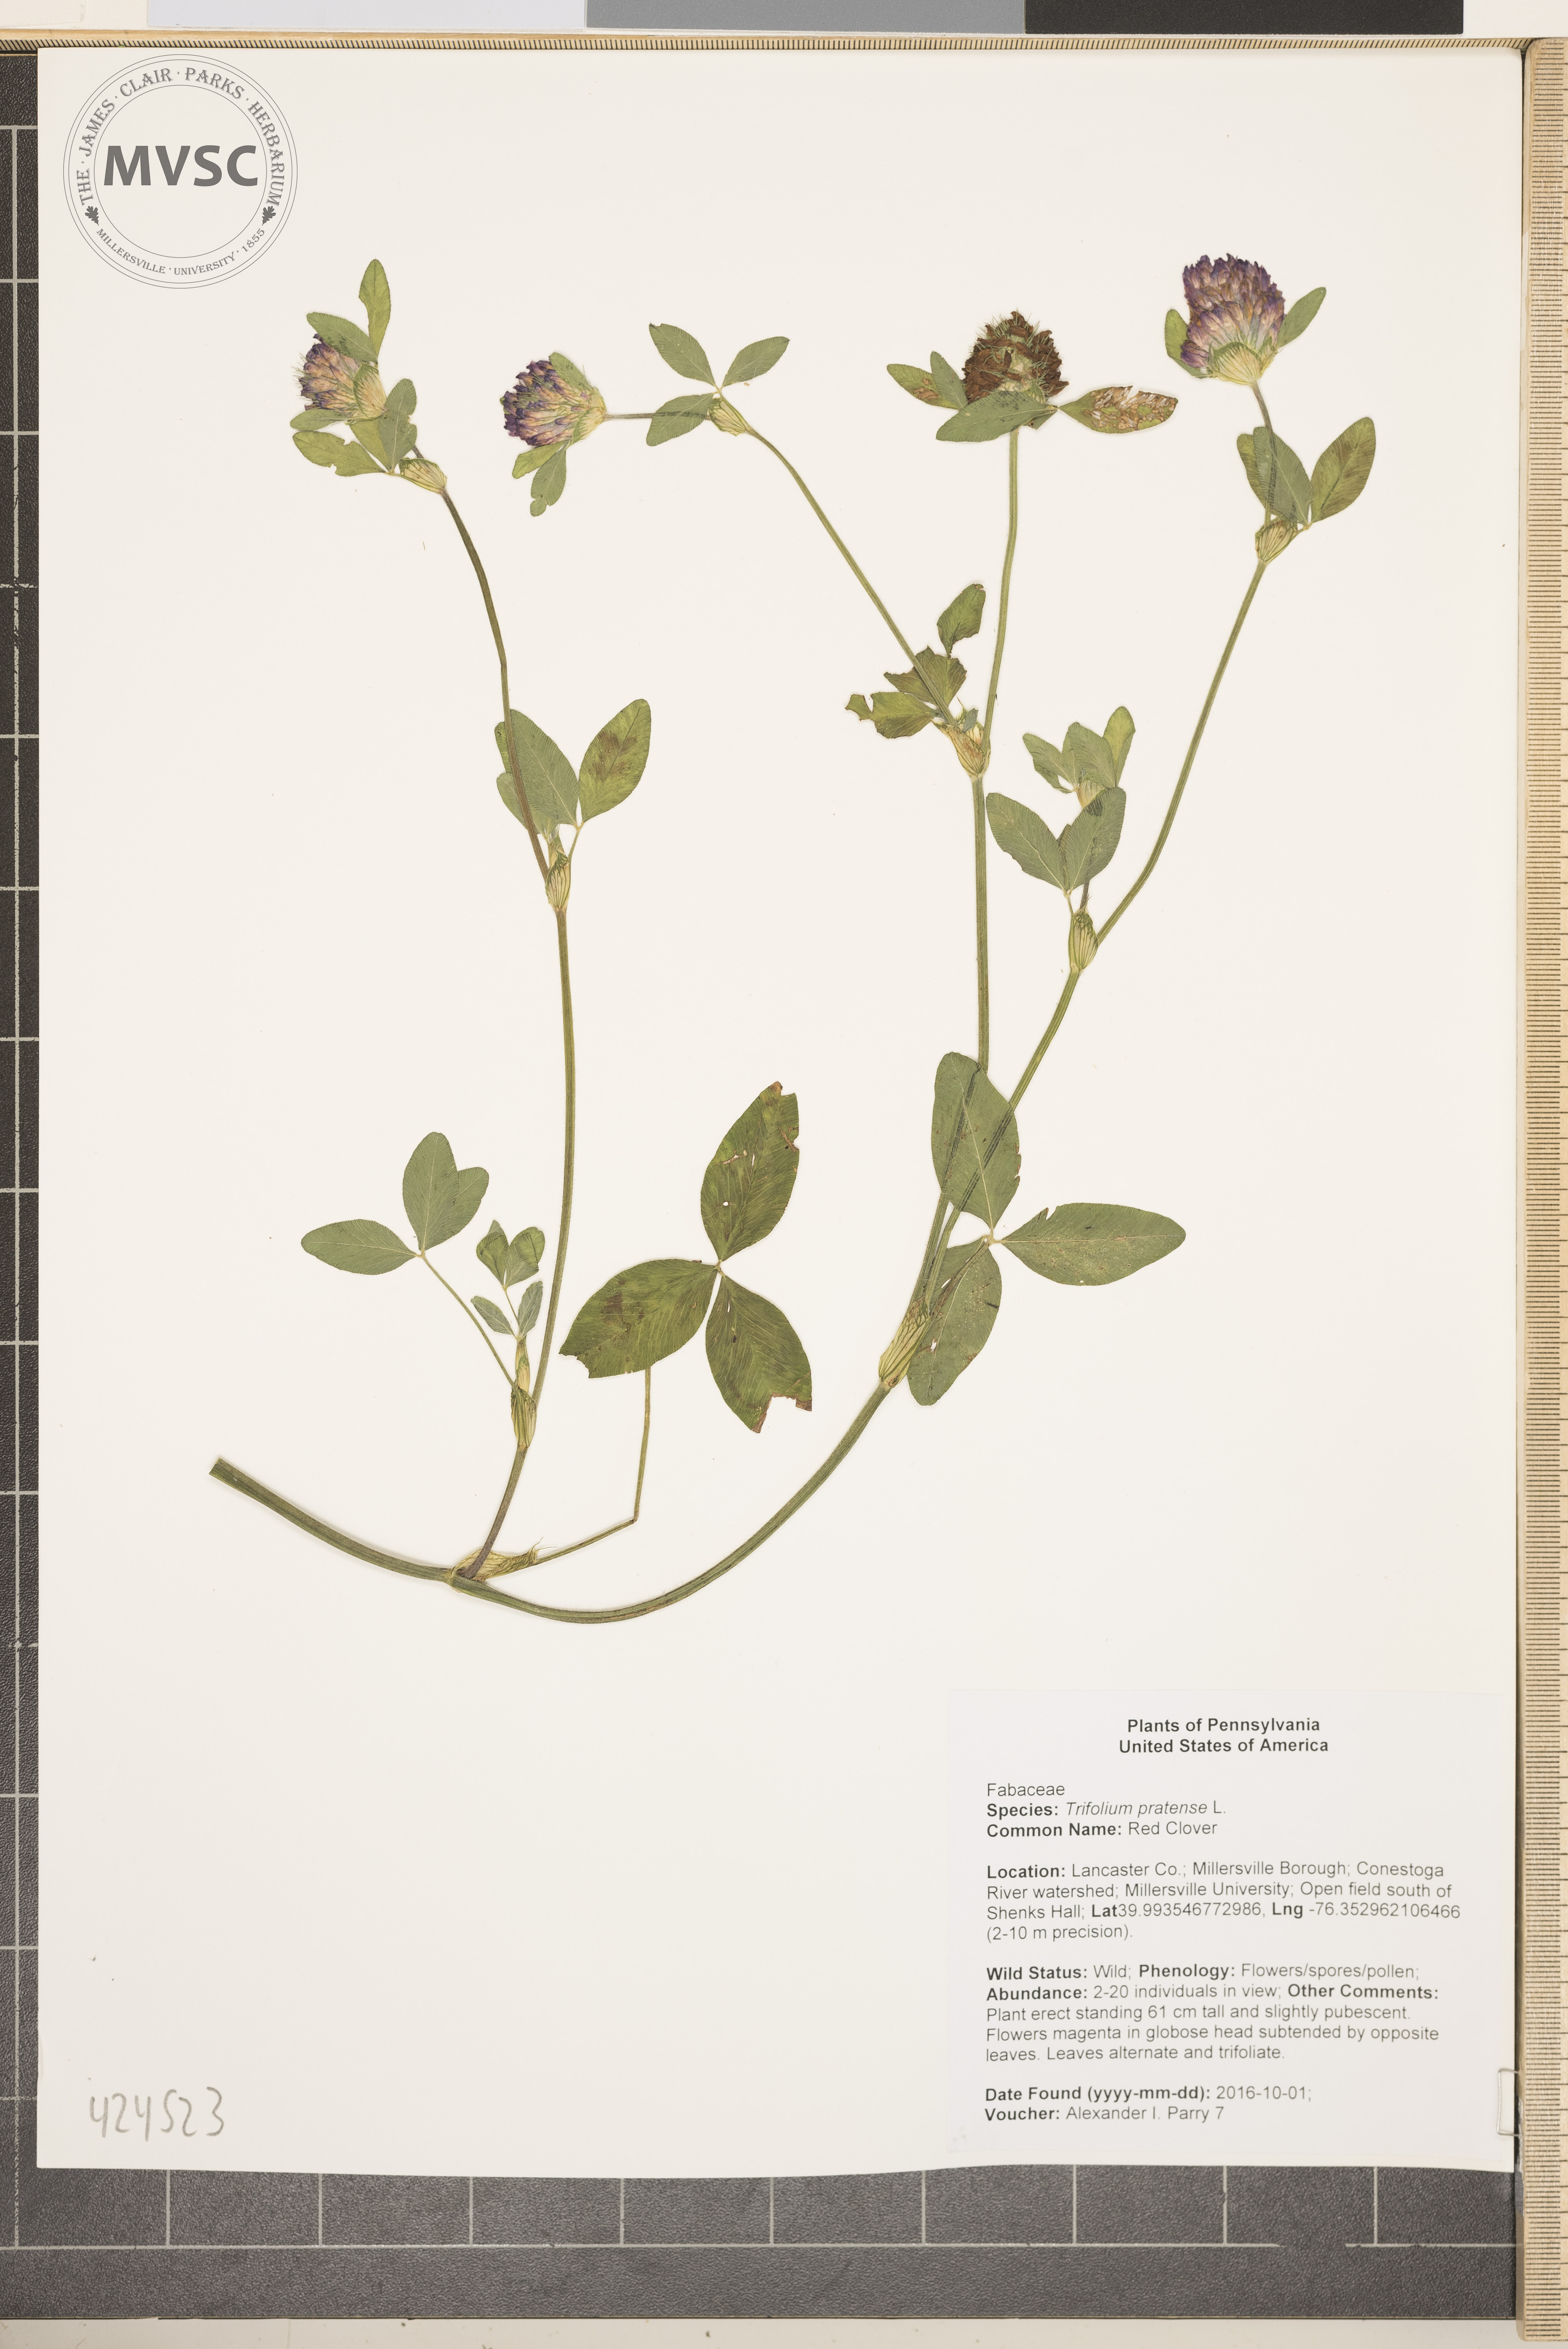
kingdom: Plantae
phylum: Tracheophyta
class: Magnoliopsida
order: Fabales
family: Fabaceae
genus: Trifolium
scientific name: Trifolium pratense
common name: Red Clover
